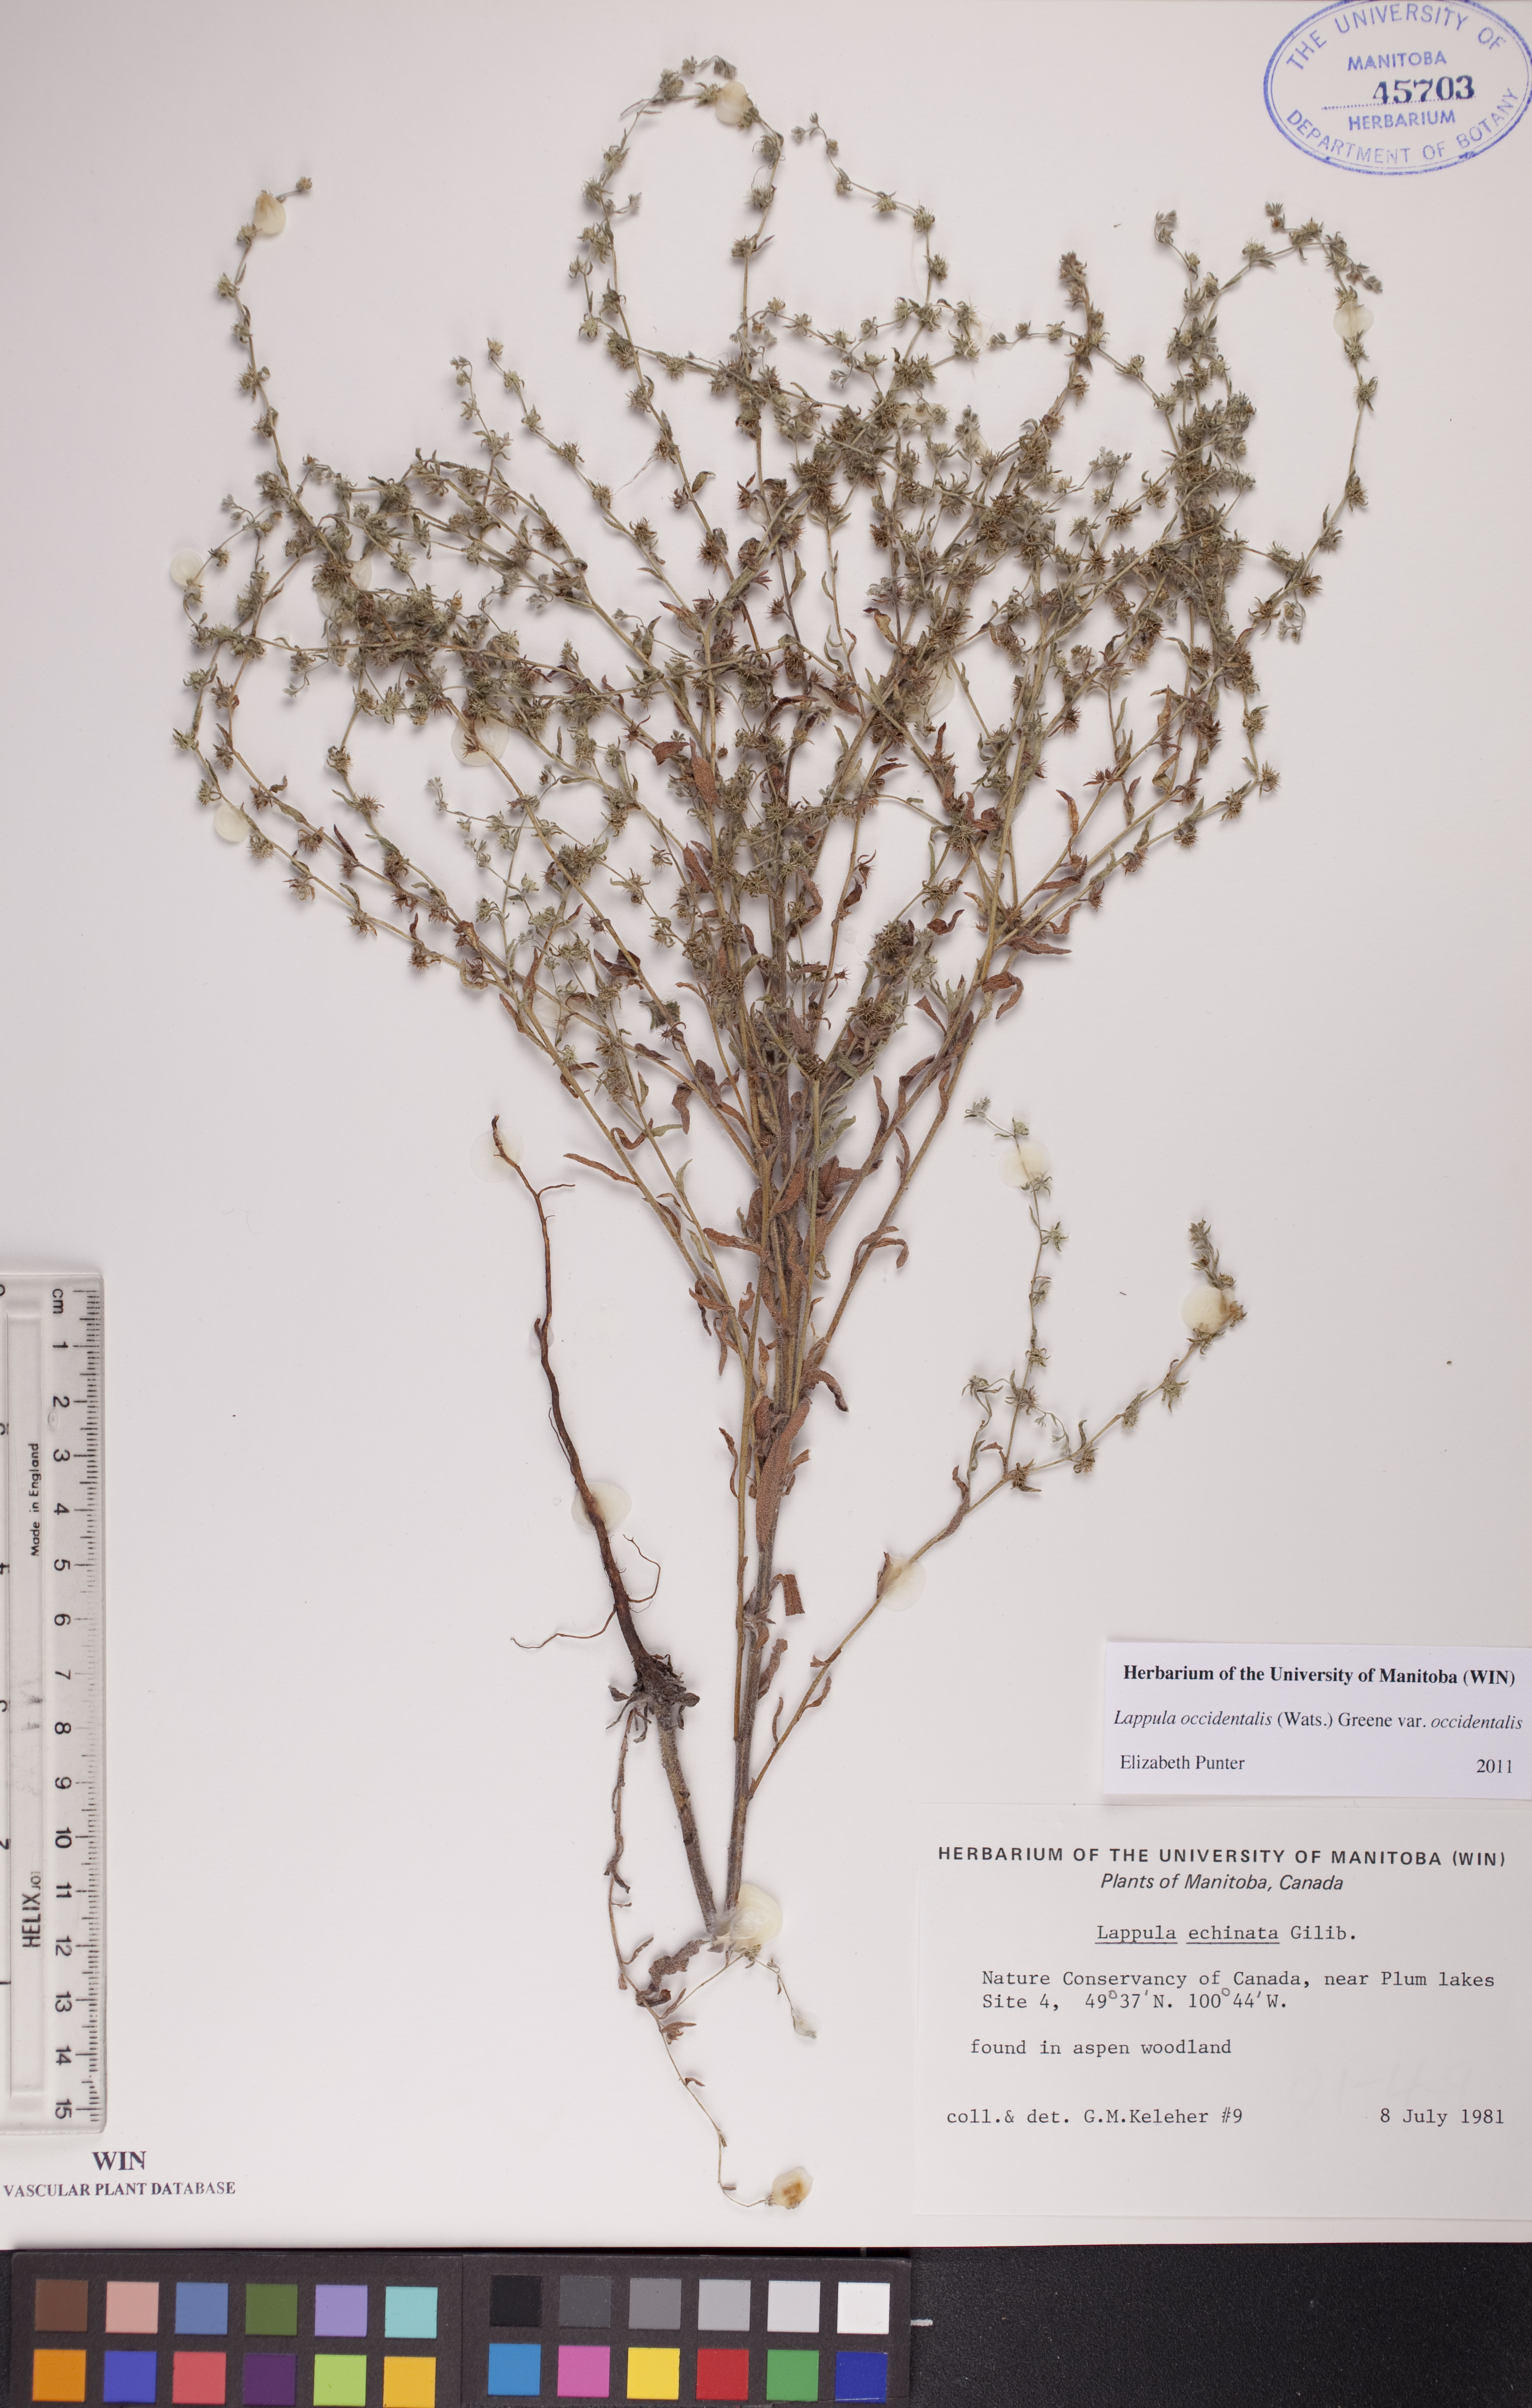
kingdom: Plantae
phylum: Tracheophyta
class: Magnoliopsida
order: Boraginales
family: Boraginaceae
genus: Lappula
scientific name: Lappula occidentalis
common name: Western stickseed
